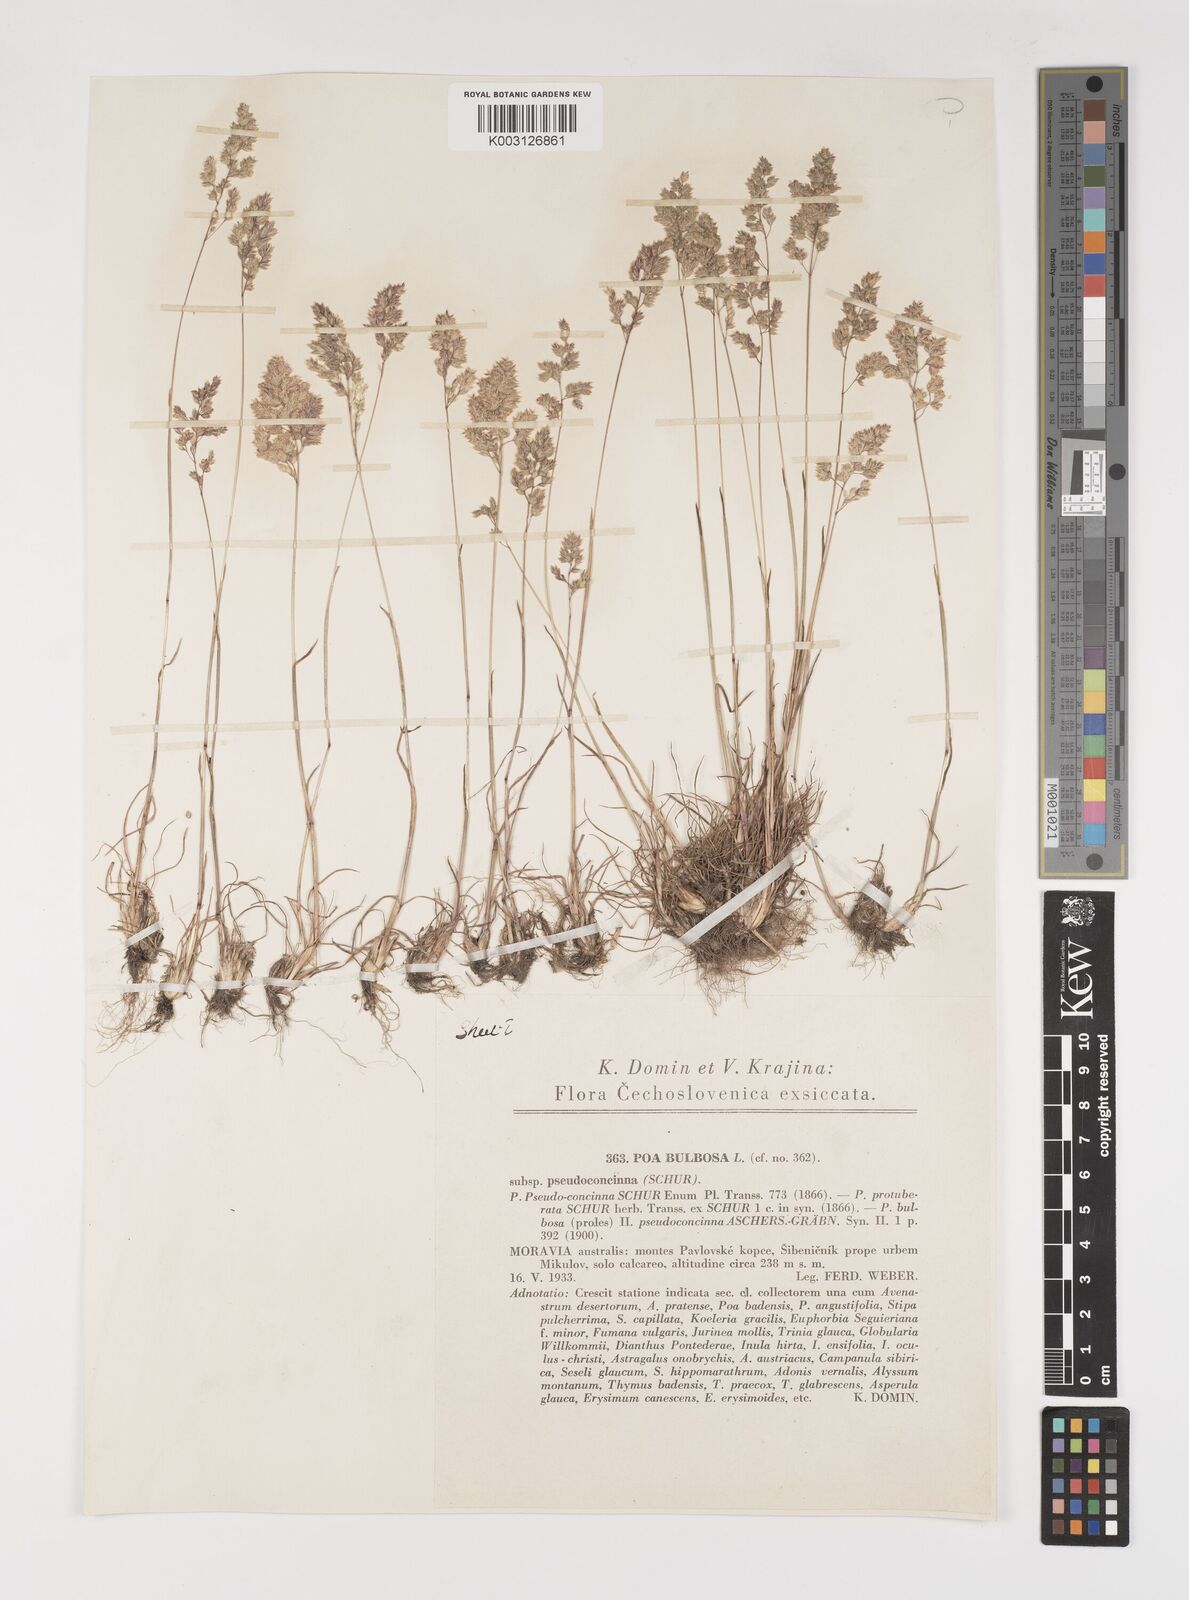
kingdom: Plantae
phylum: Tracheophyta
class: Liliopsida
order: Poales
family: Poaceae
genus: Poa
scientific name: Poa bulbosa
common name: Bulbous bluegrass
